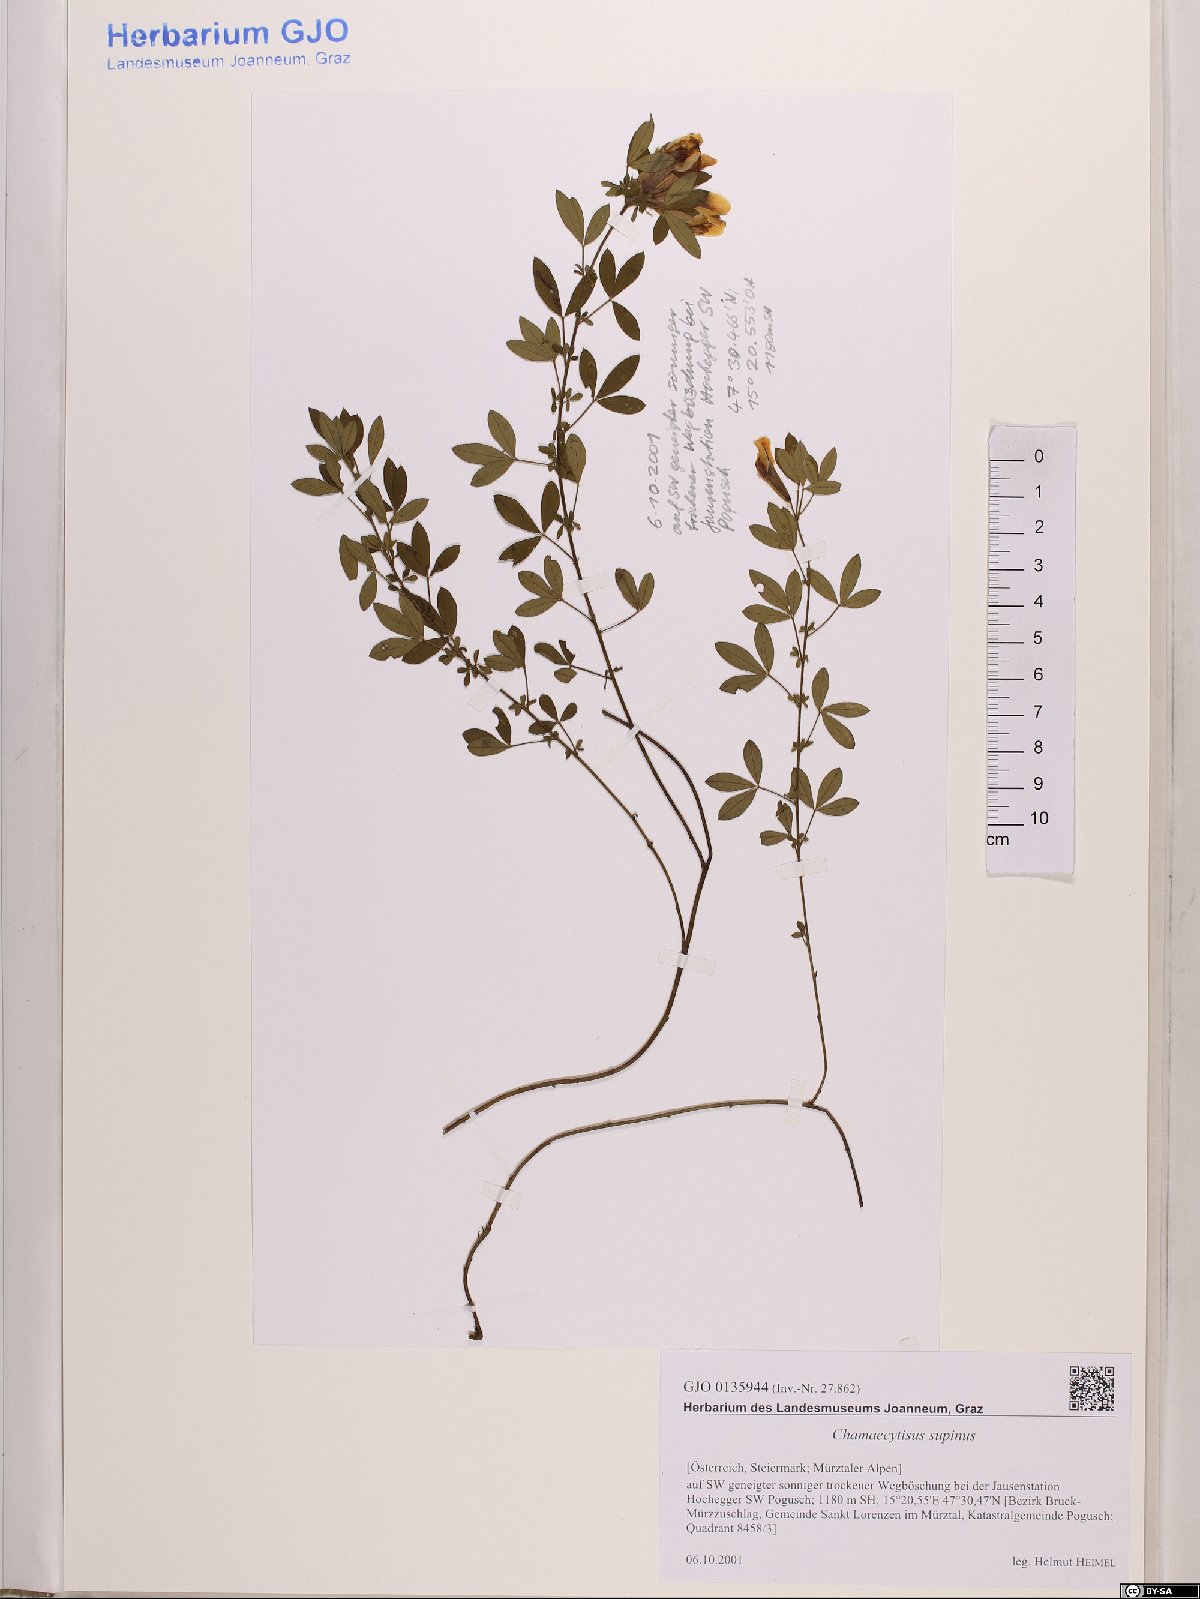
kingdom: Plantae
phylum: Tracheophyta
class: Magnoliopsida
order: Fabales
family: Fabaceae
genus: Chamaecytisus
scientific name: Chamaecytisus supinus
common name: Clustered broom
